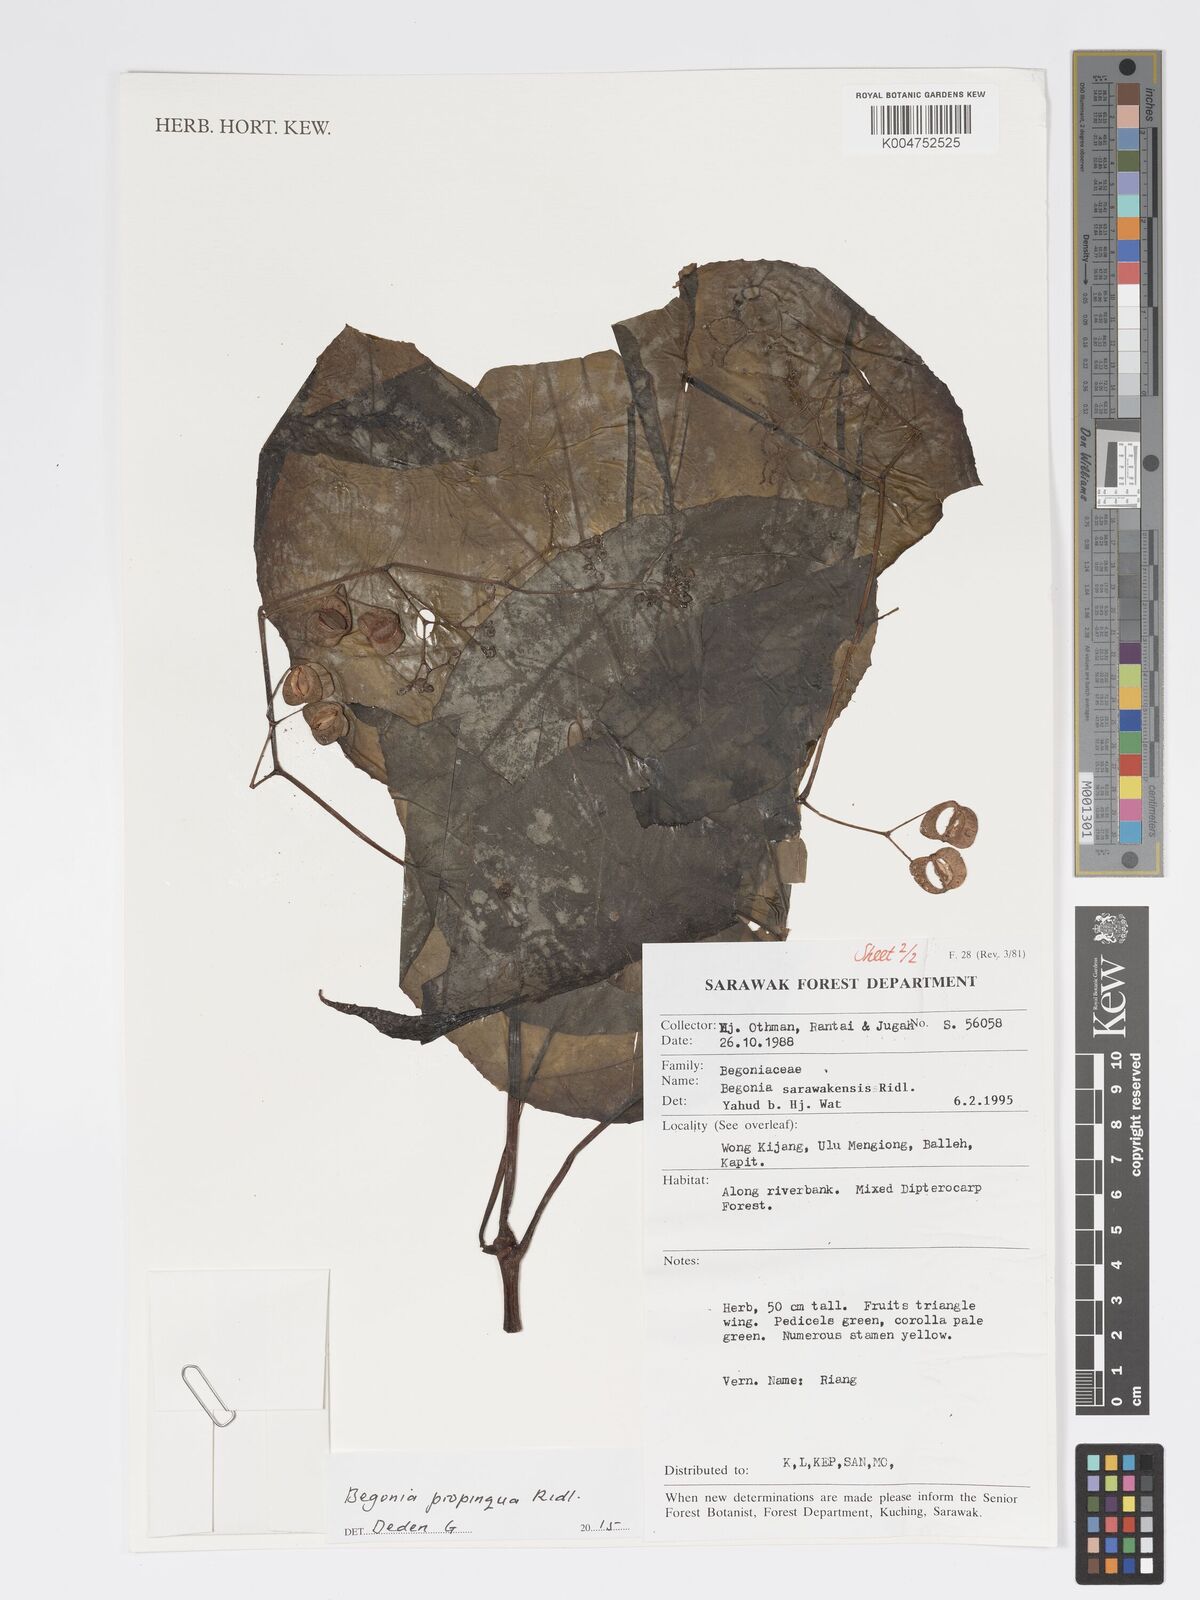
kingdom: Plantae
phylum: Tracheophyta
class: Magnoliopsida
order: Cucurbitales
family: Begoniaceae
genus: Begonia
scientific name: Begonia propinqua
